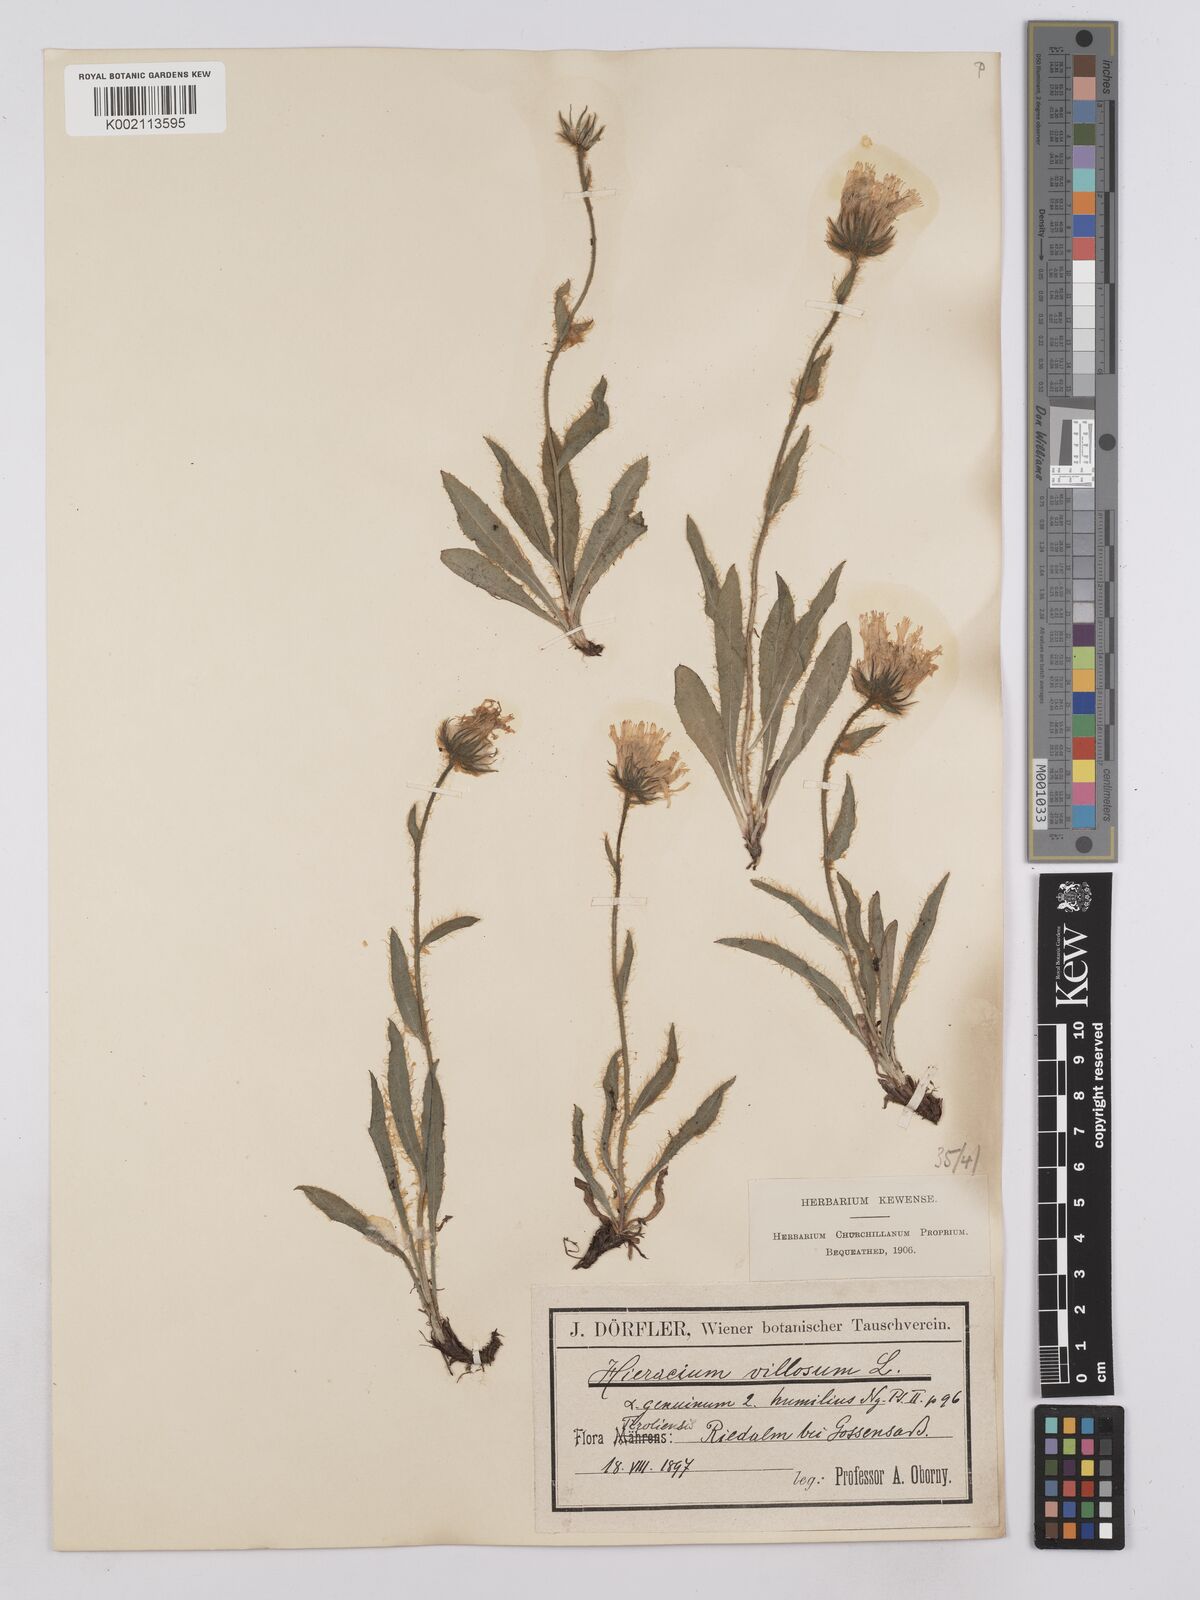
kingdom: Plantae
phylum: Tracheophyta
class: Magnoliopsida
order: Asterales
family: Asteraceae
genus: Hieracium
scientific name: Hieracium villosum
